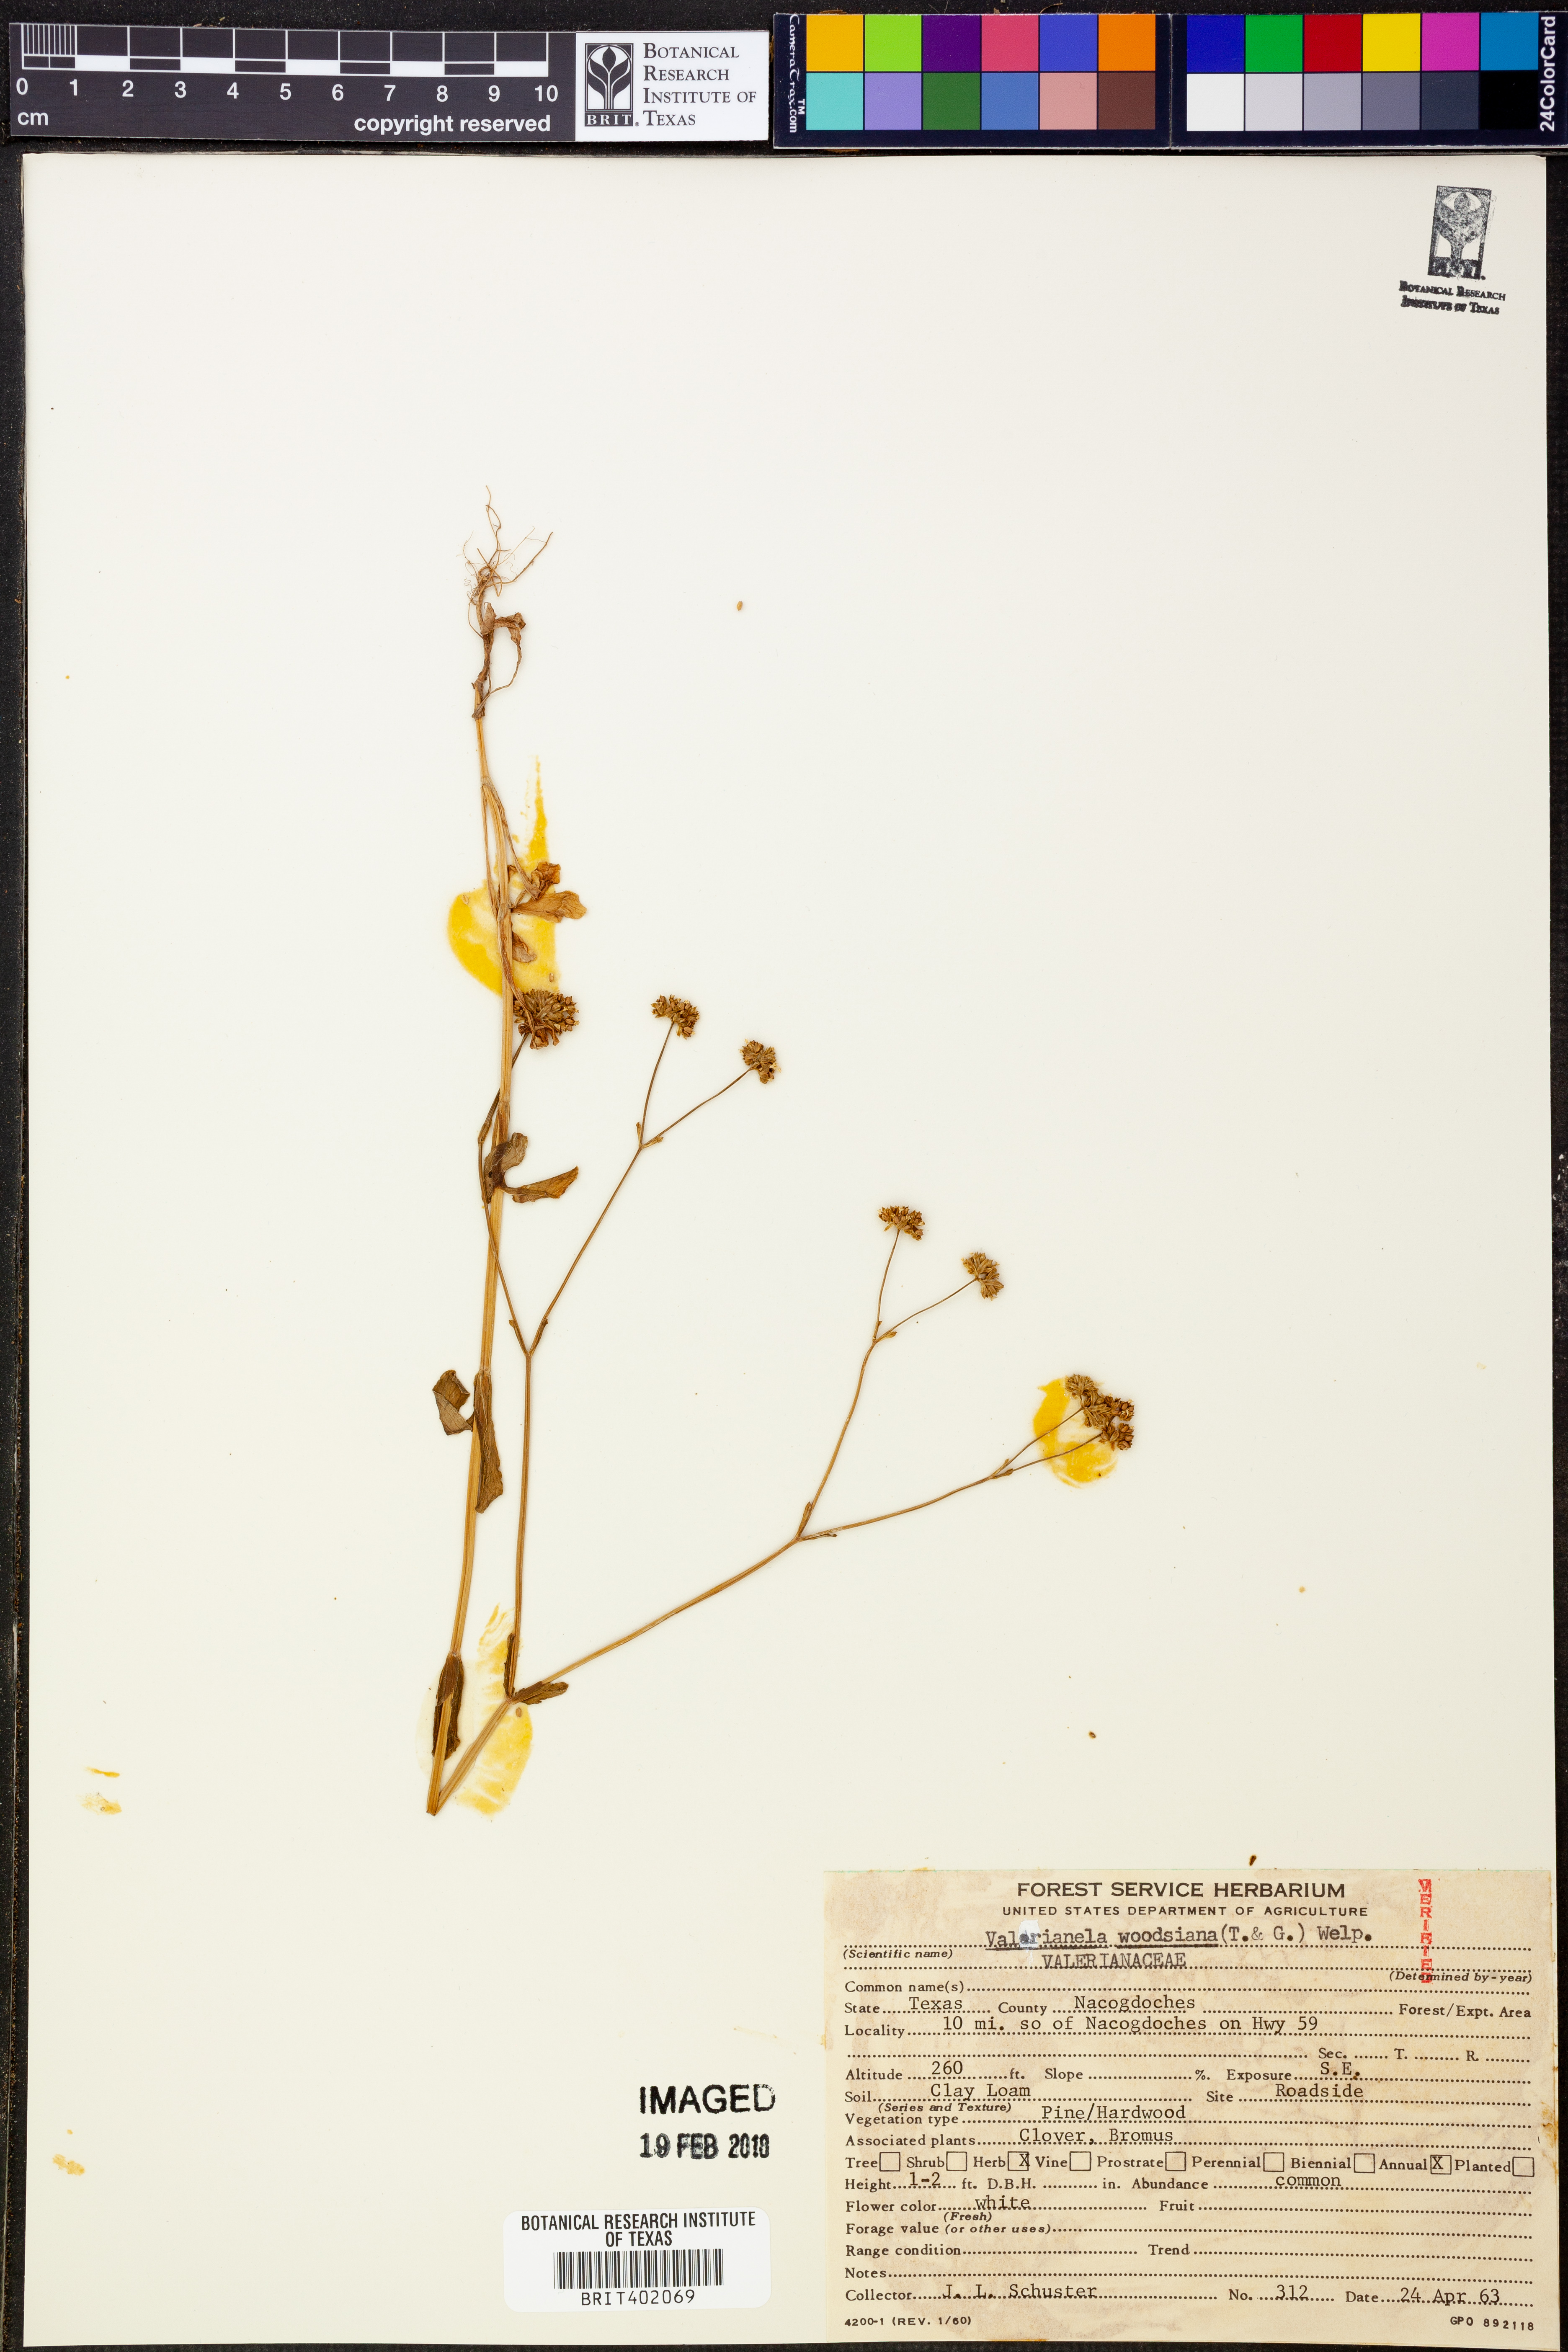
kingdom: Plantae
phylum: Tracheophyta
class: Magnoliopsida
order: Dipsacales
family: Caprifoliaceae
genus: Valerianella
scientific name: Valerianella radiata
